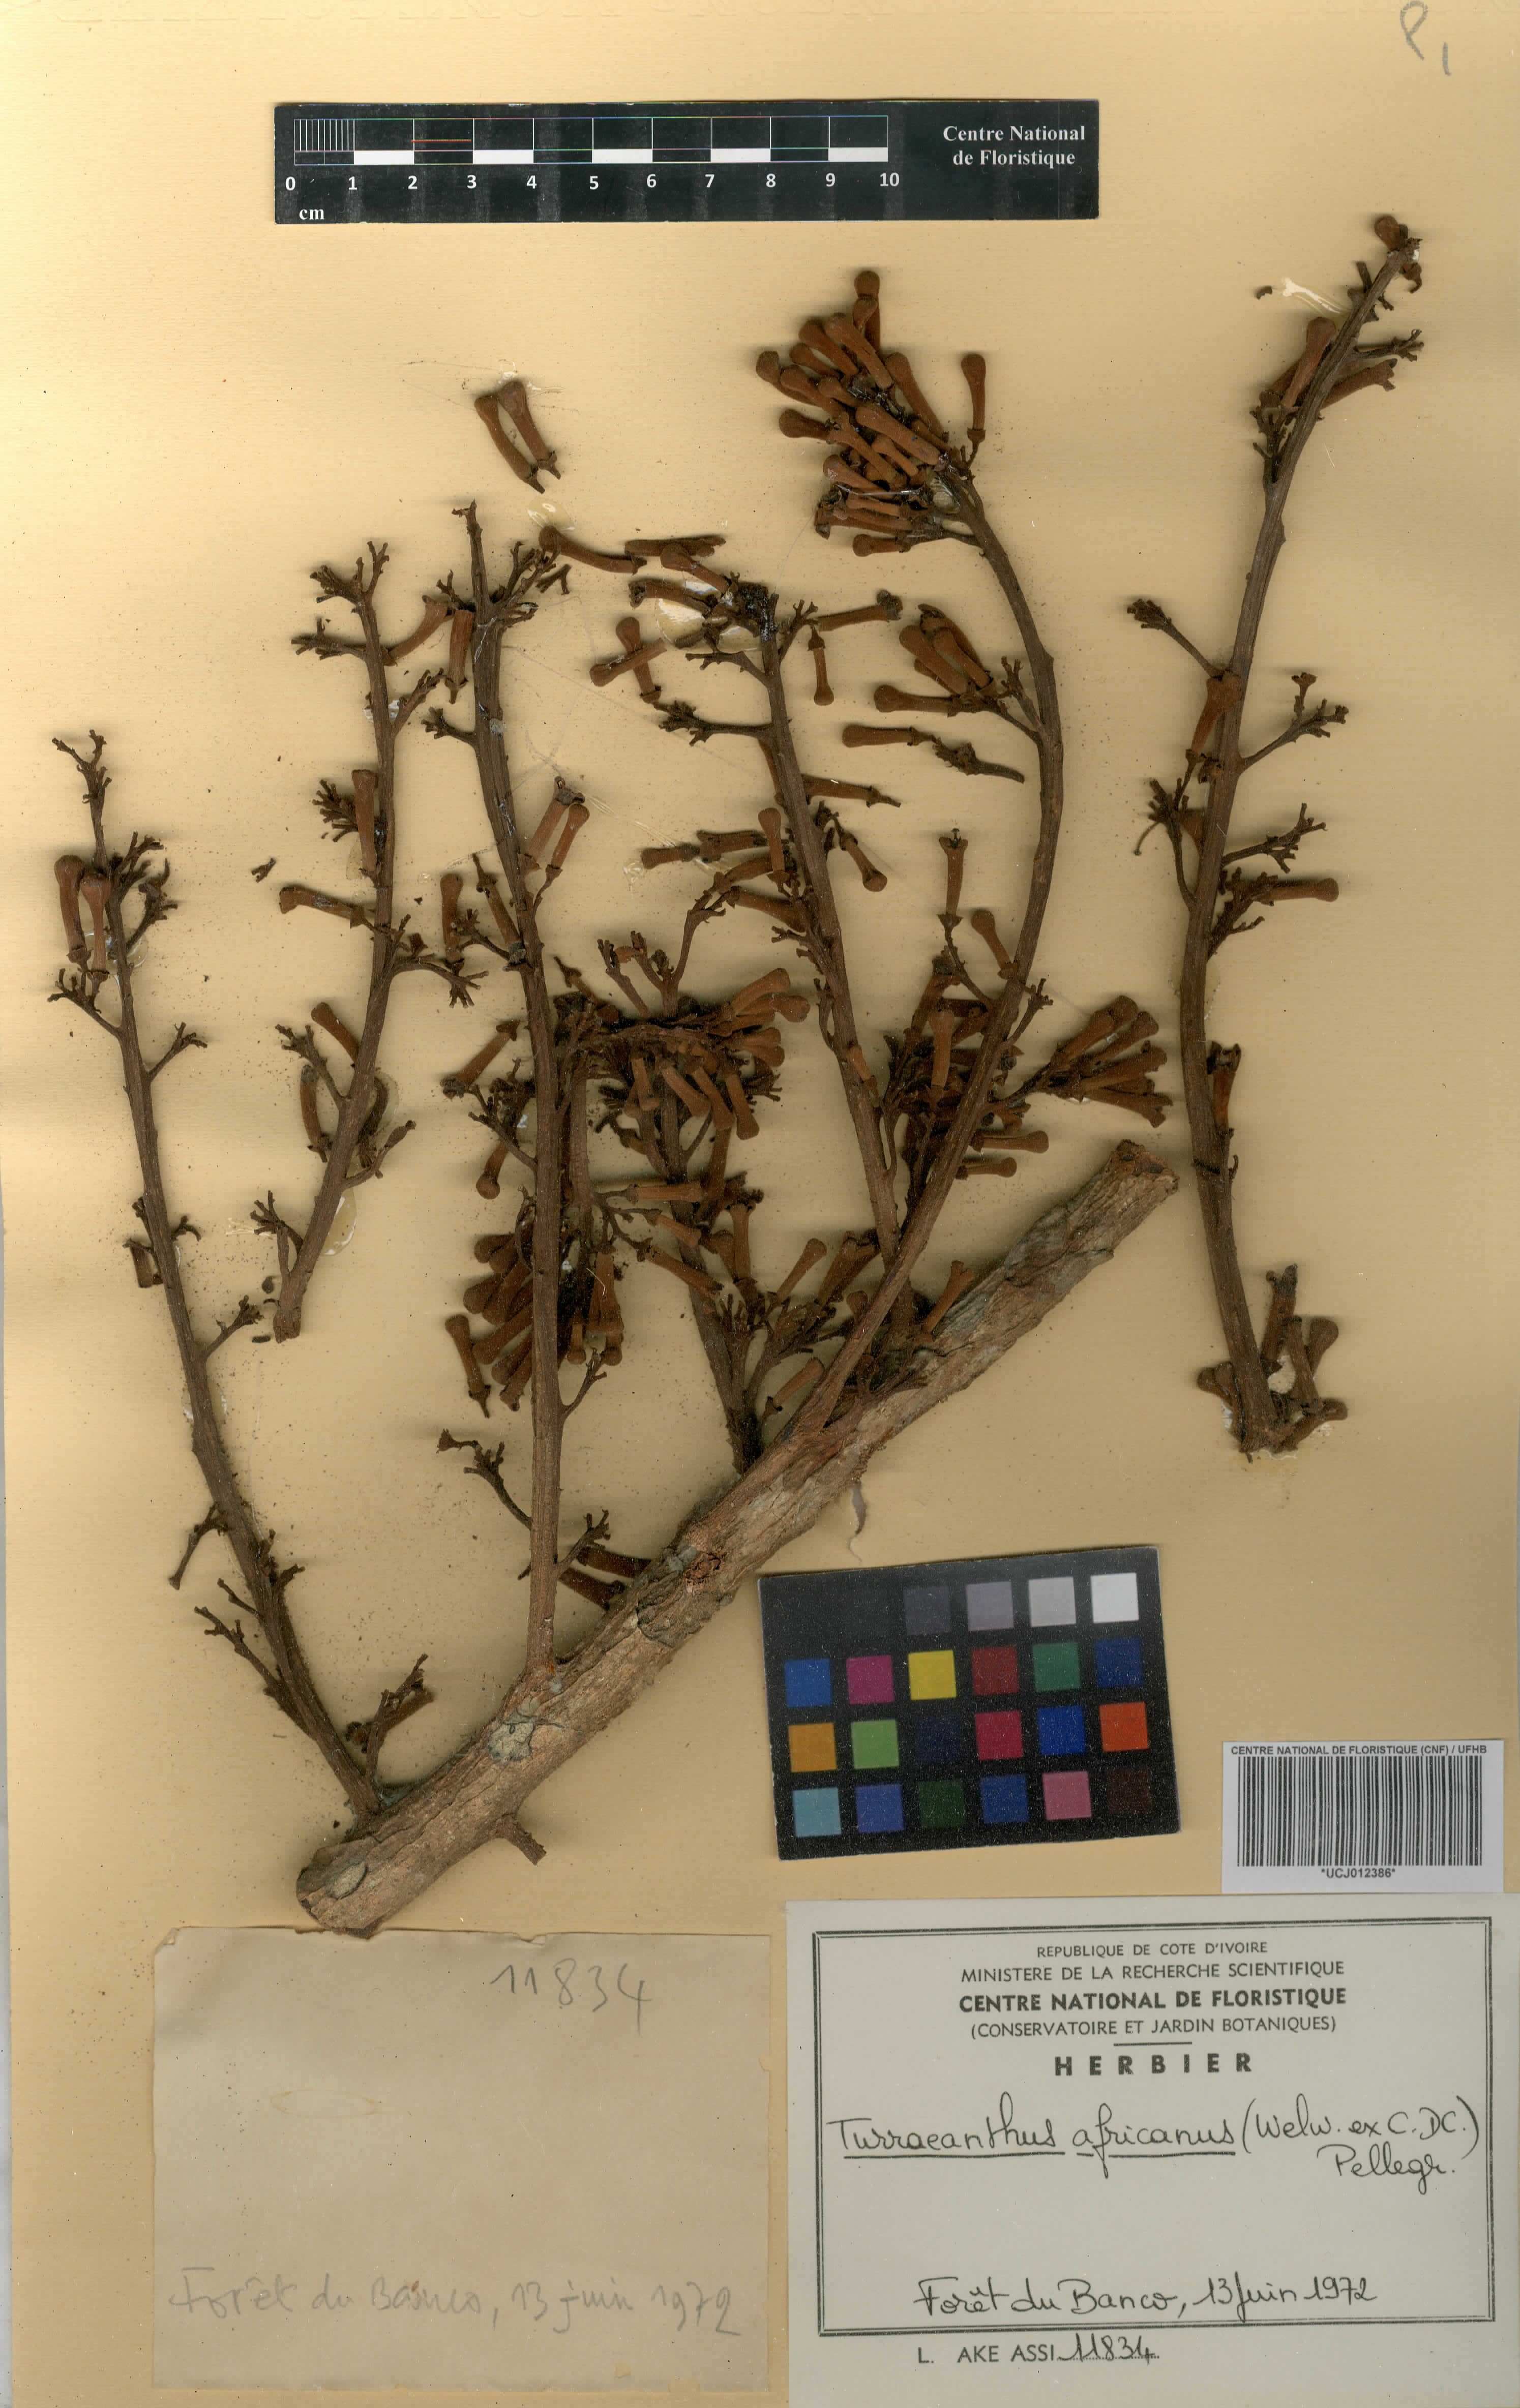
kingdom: Plantae
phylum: Tracheophyta
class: Magnoliopsida
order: Sapindales
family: Meliaceae
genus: Turraeanthus
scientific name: Turraeanthus africanus
